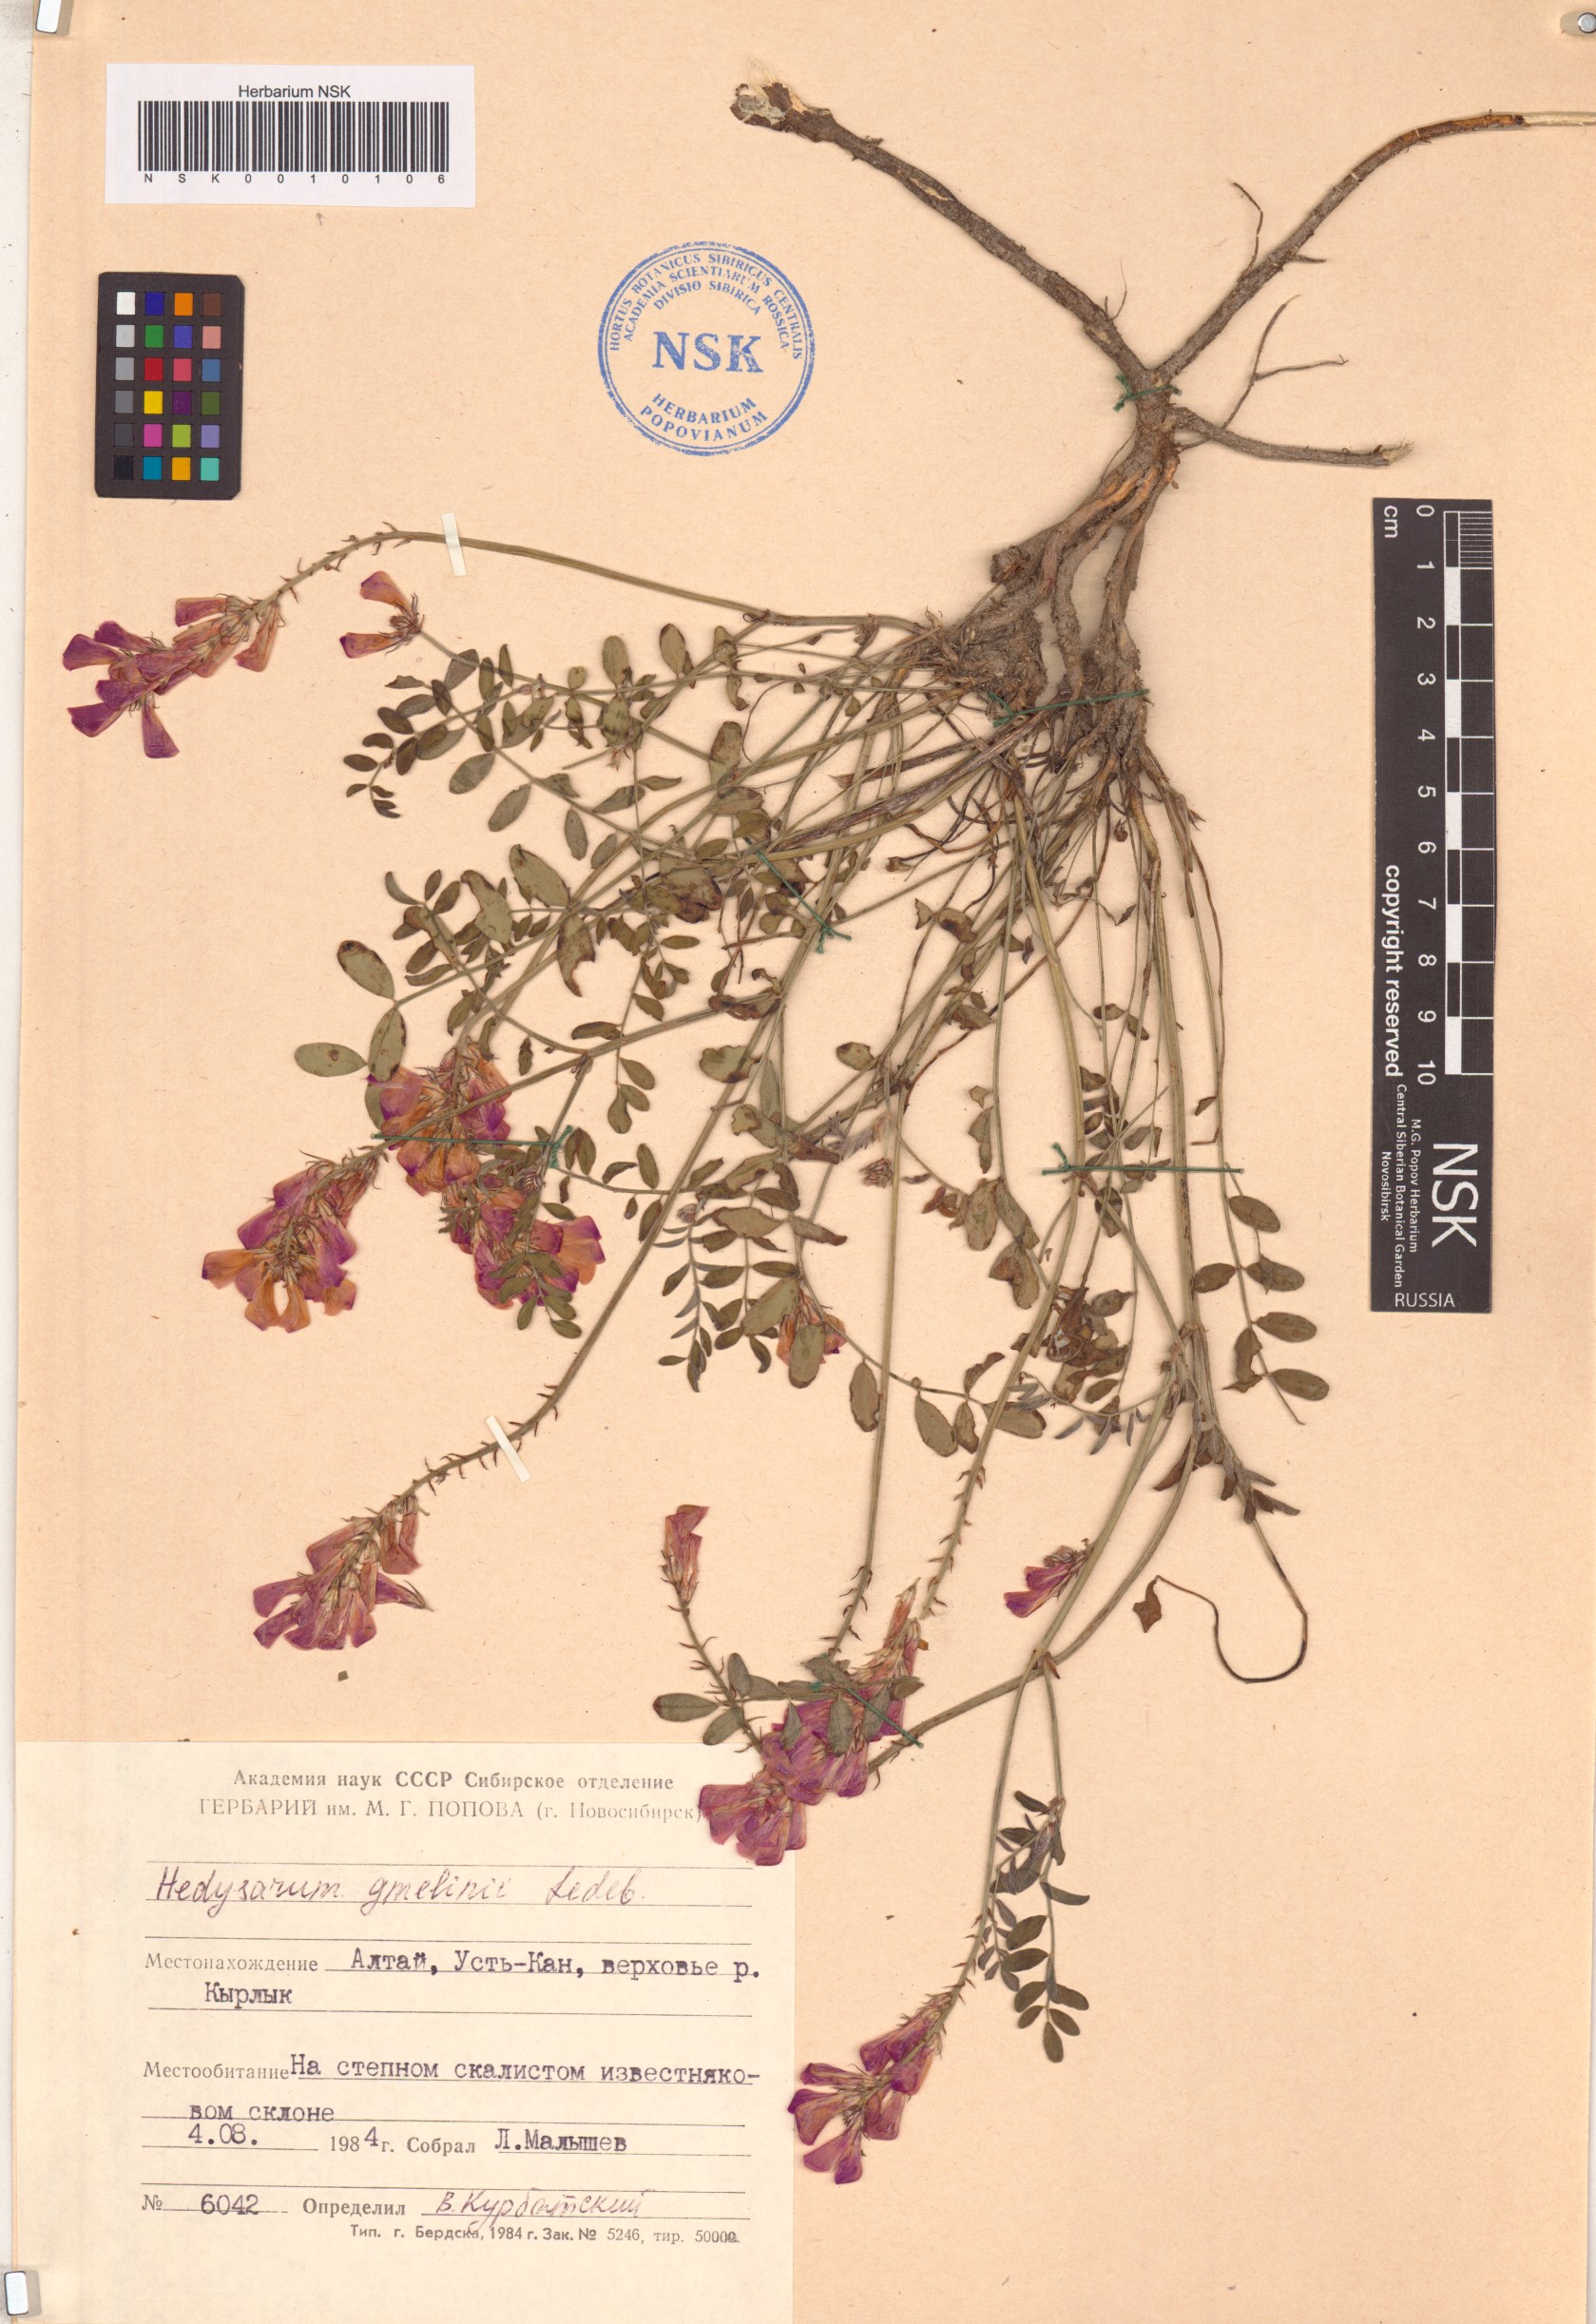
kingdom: Plantae
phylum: Tracheophyta
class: Magnoliopsida
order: Fabales
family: Fabaceae
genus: Hedysarum
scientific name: Hedysarum gmelinii
